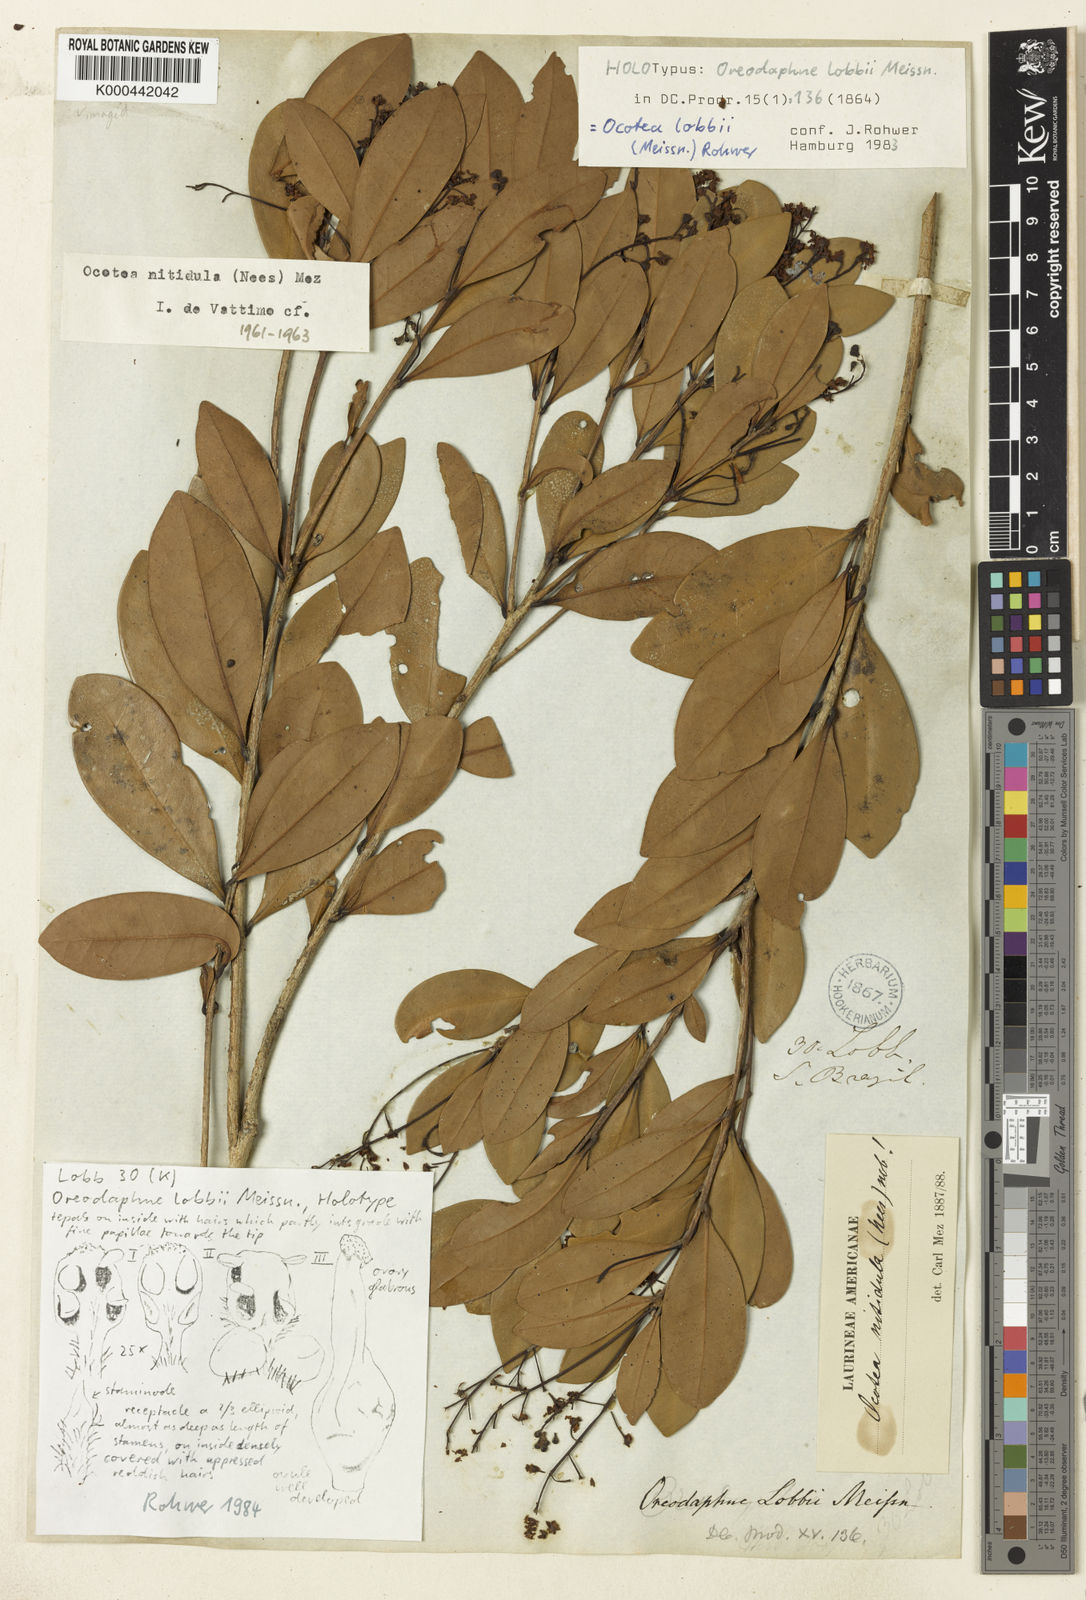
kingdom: Plantae
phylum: Tracheophyta
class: Magnoliopsida
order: Laurales
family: Lauraceae
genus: Ocotea
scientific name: Ocotea lobbii
